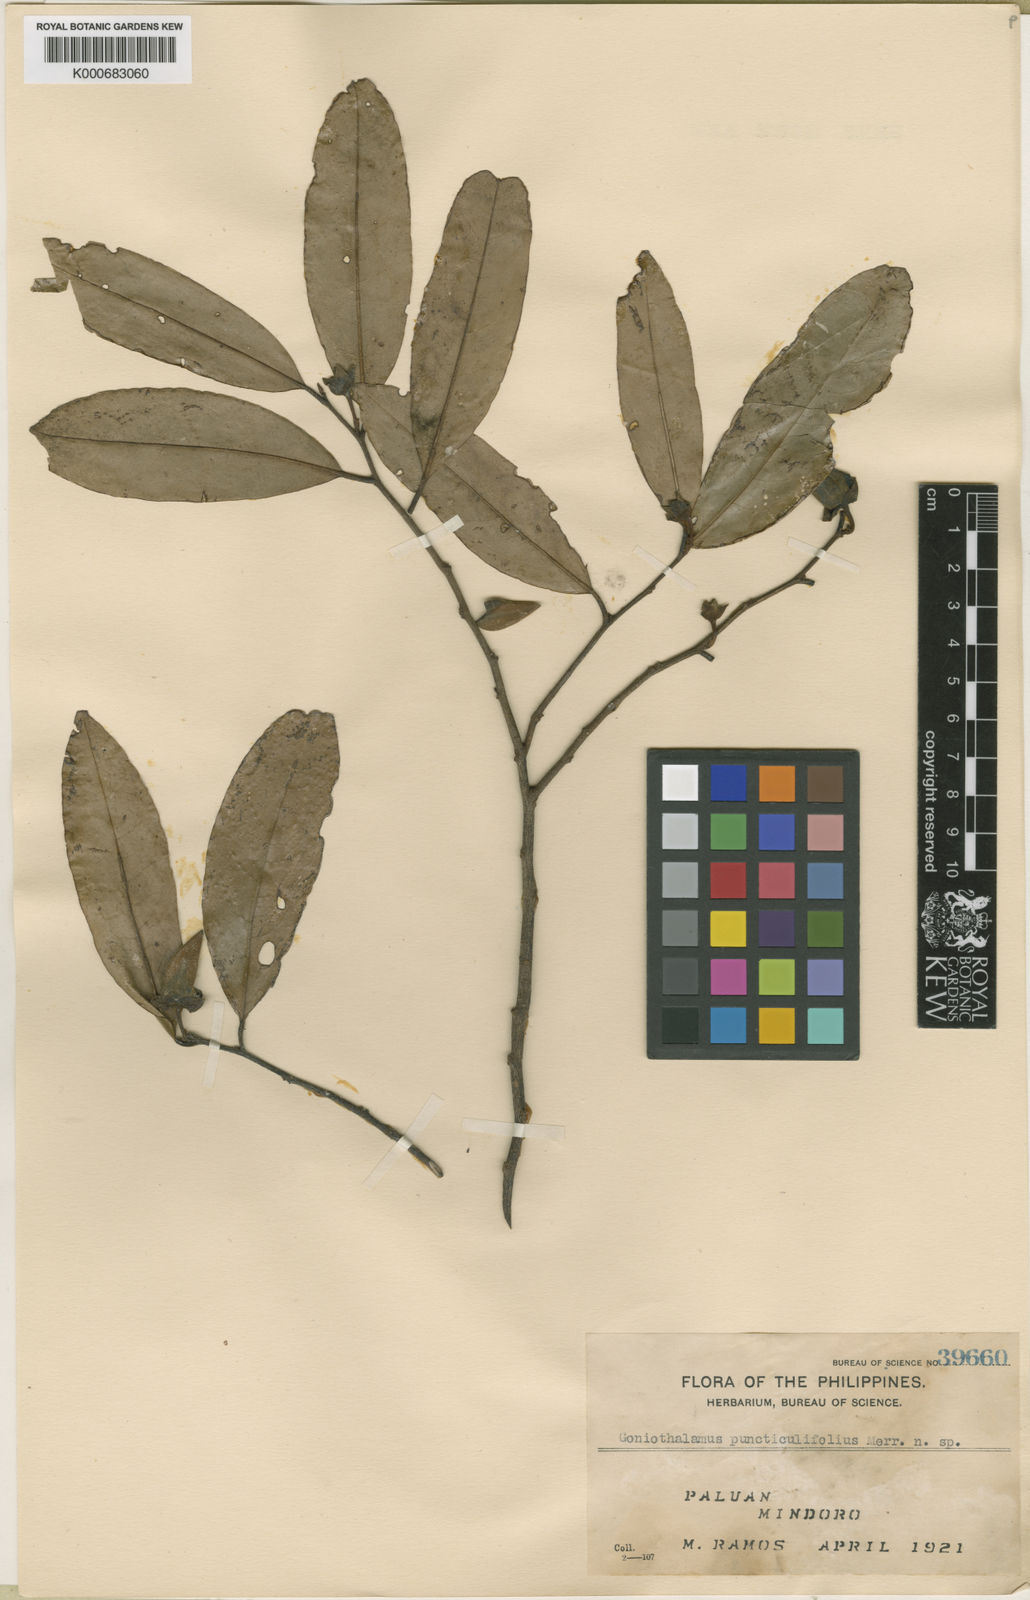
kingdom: Plantae
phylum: Tracheophyta
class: Magnoliopsida
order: Magnoliales
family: Annonaceae
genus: Goniothalamus
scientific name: Goniothalamus puncticulifolius
